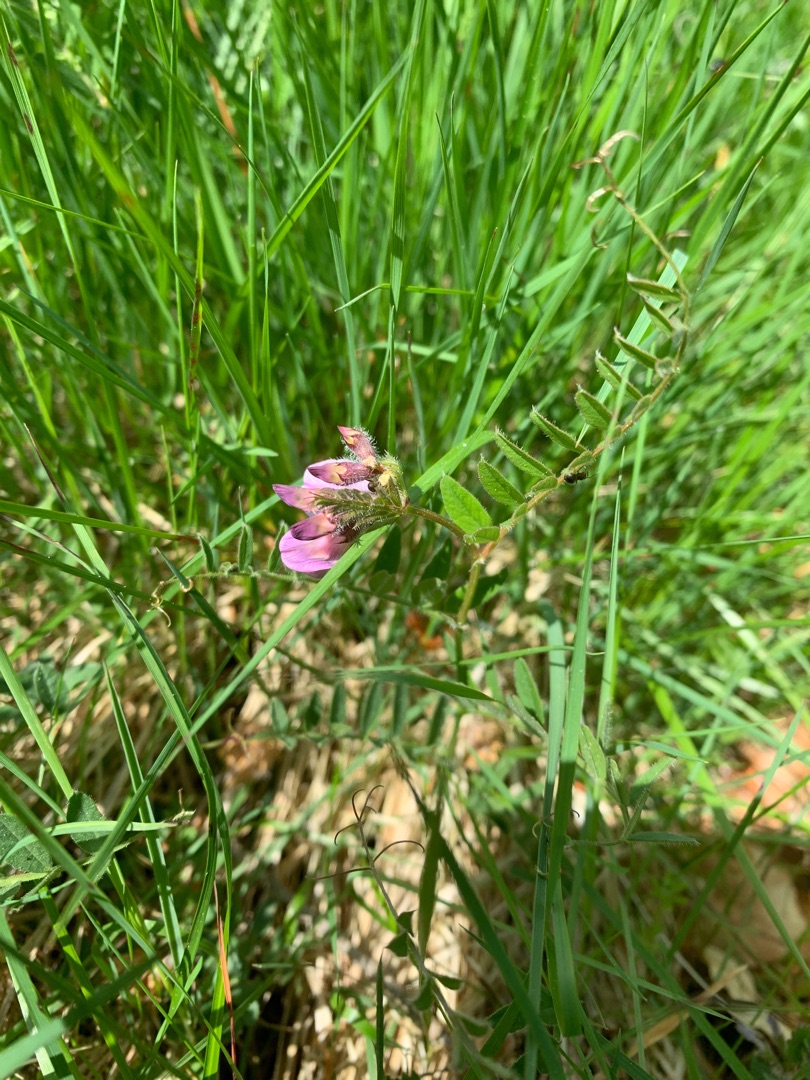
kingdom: Plantae
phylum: Tracheophyta
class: Magnoliopsida
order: Fabales
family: Fabaceae
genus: Vicia
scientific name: Vicia sepium
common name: Gærde-vikke
